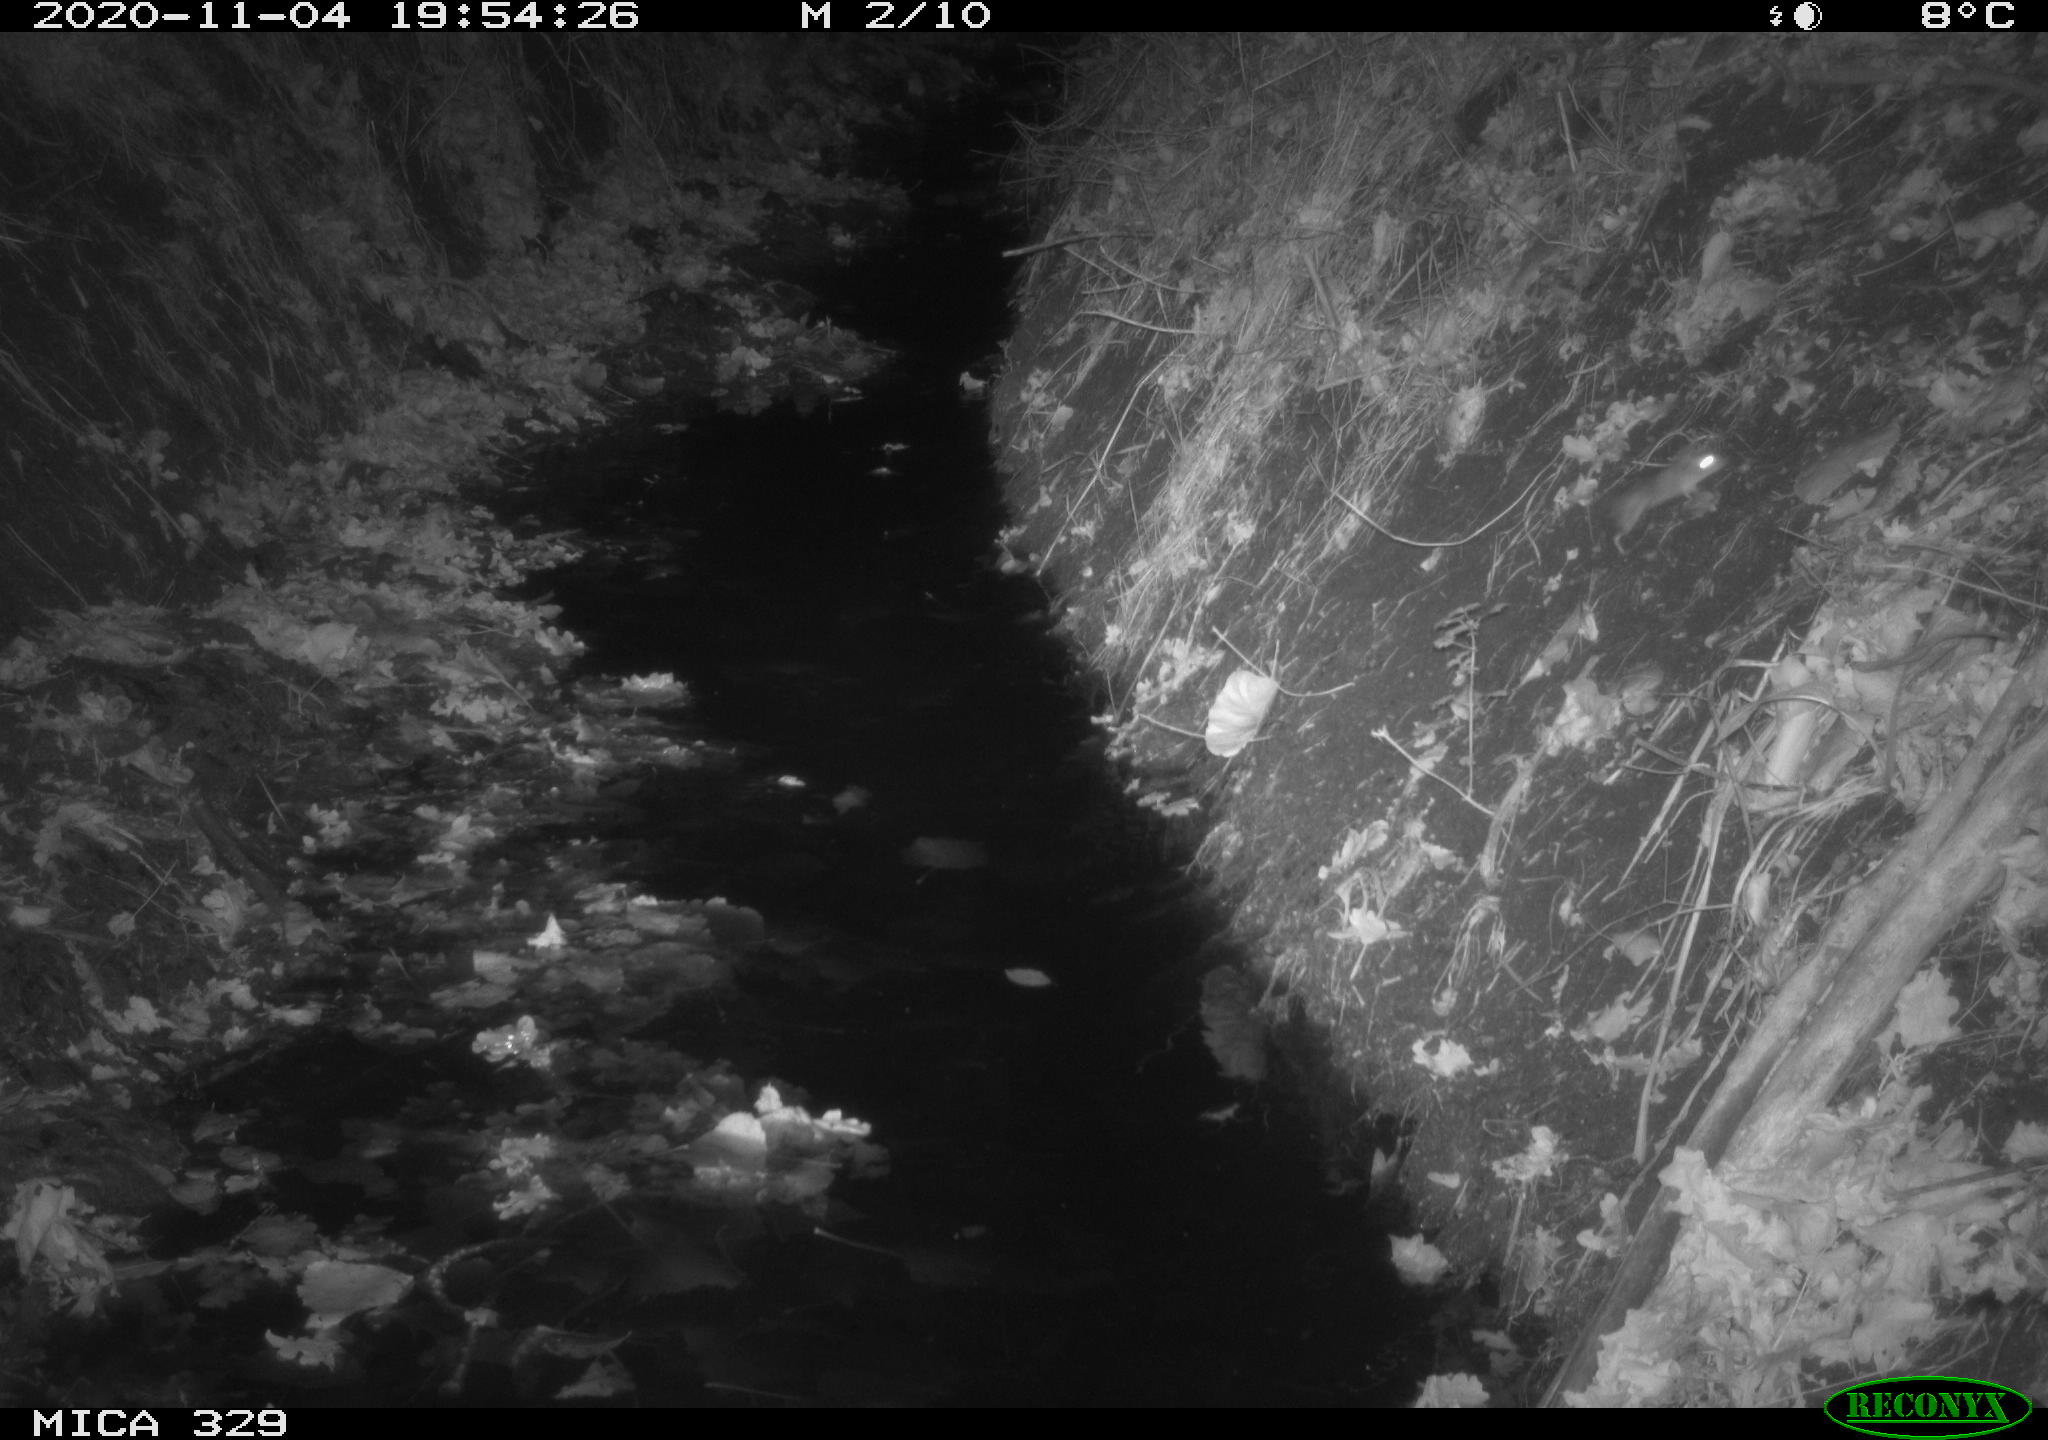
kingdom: Animalia
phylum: Chordata
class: Mammalia
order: Rodentia
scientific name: Rodentia
